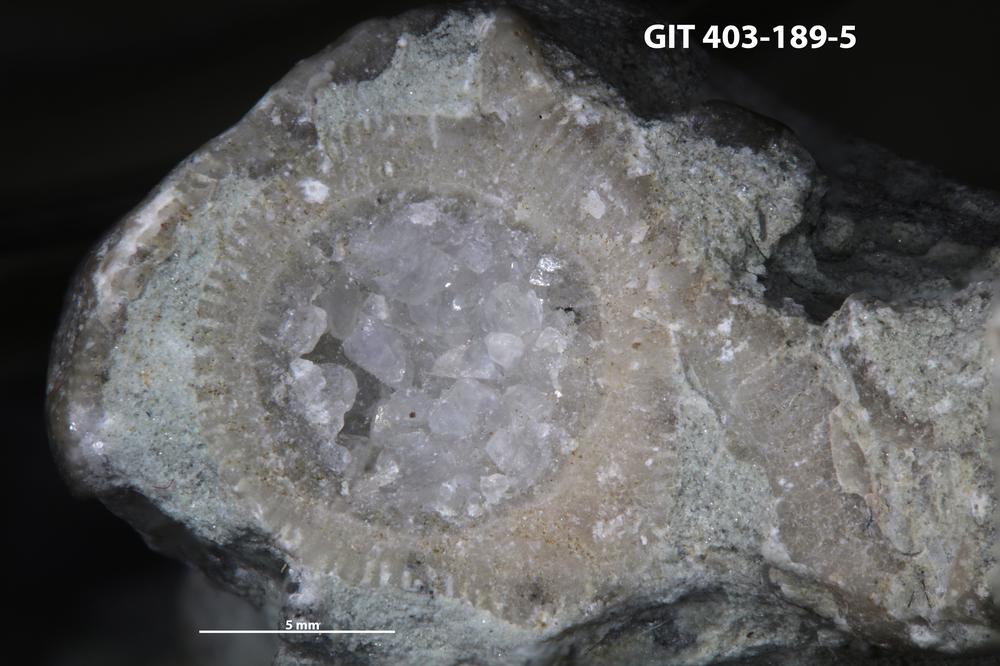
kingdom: Animalia
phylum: Cnidaria
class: Anthozoa
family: Tryplasmatidae
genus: Tryplasma
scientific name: Tryplasma
